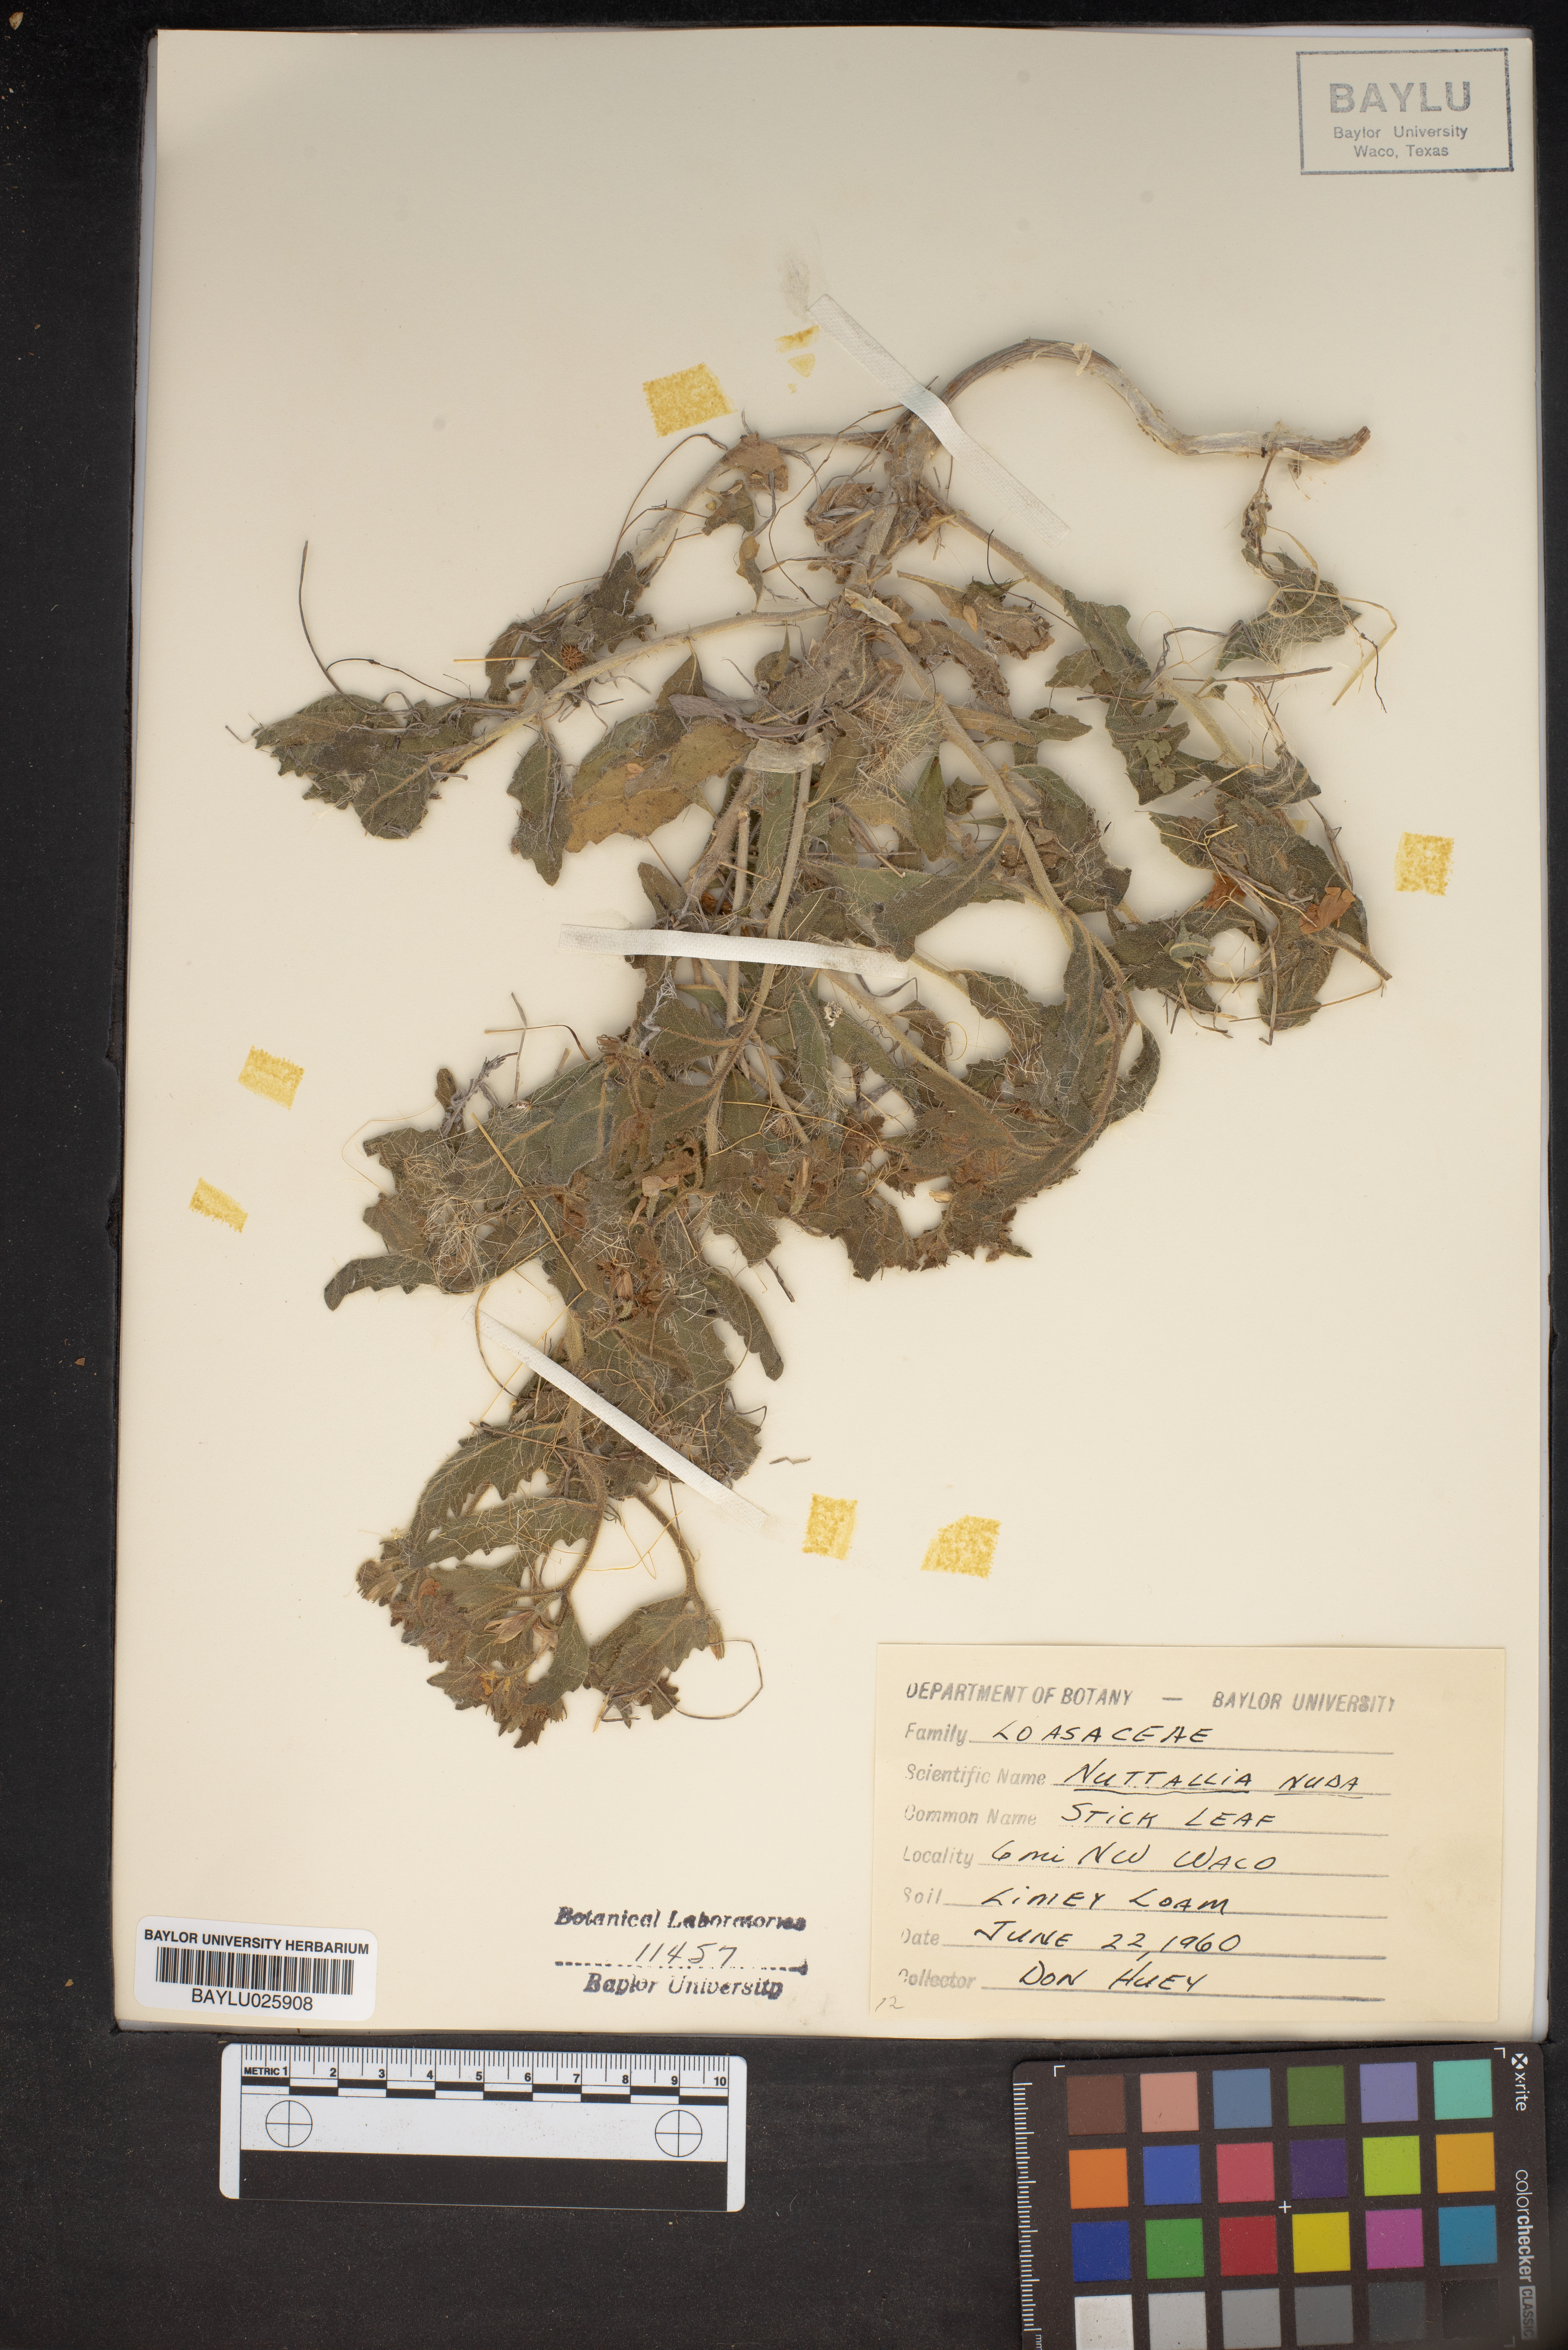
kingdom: Plantae
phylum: Tracheophyta
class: Magnoliopsida
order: Cornales
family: Loasaceae
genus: Mentzelia
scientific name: Mentzelia nuda
